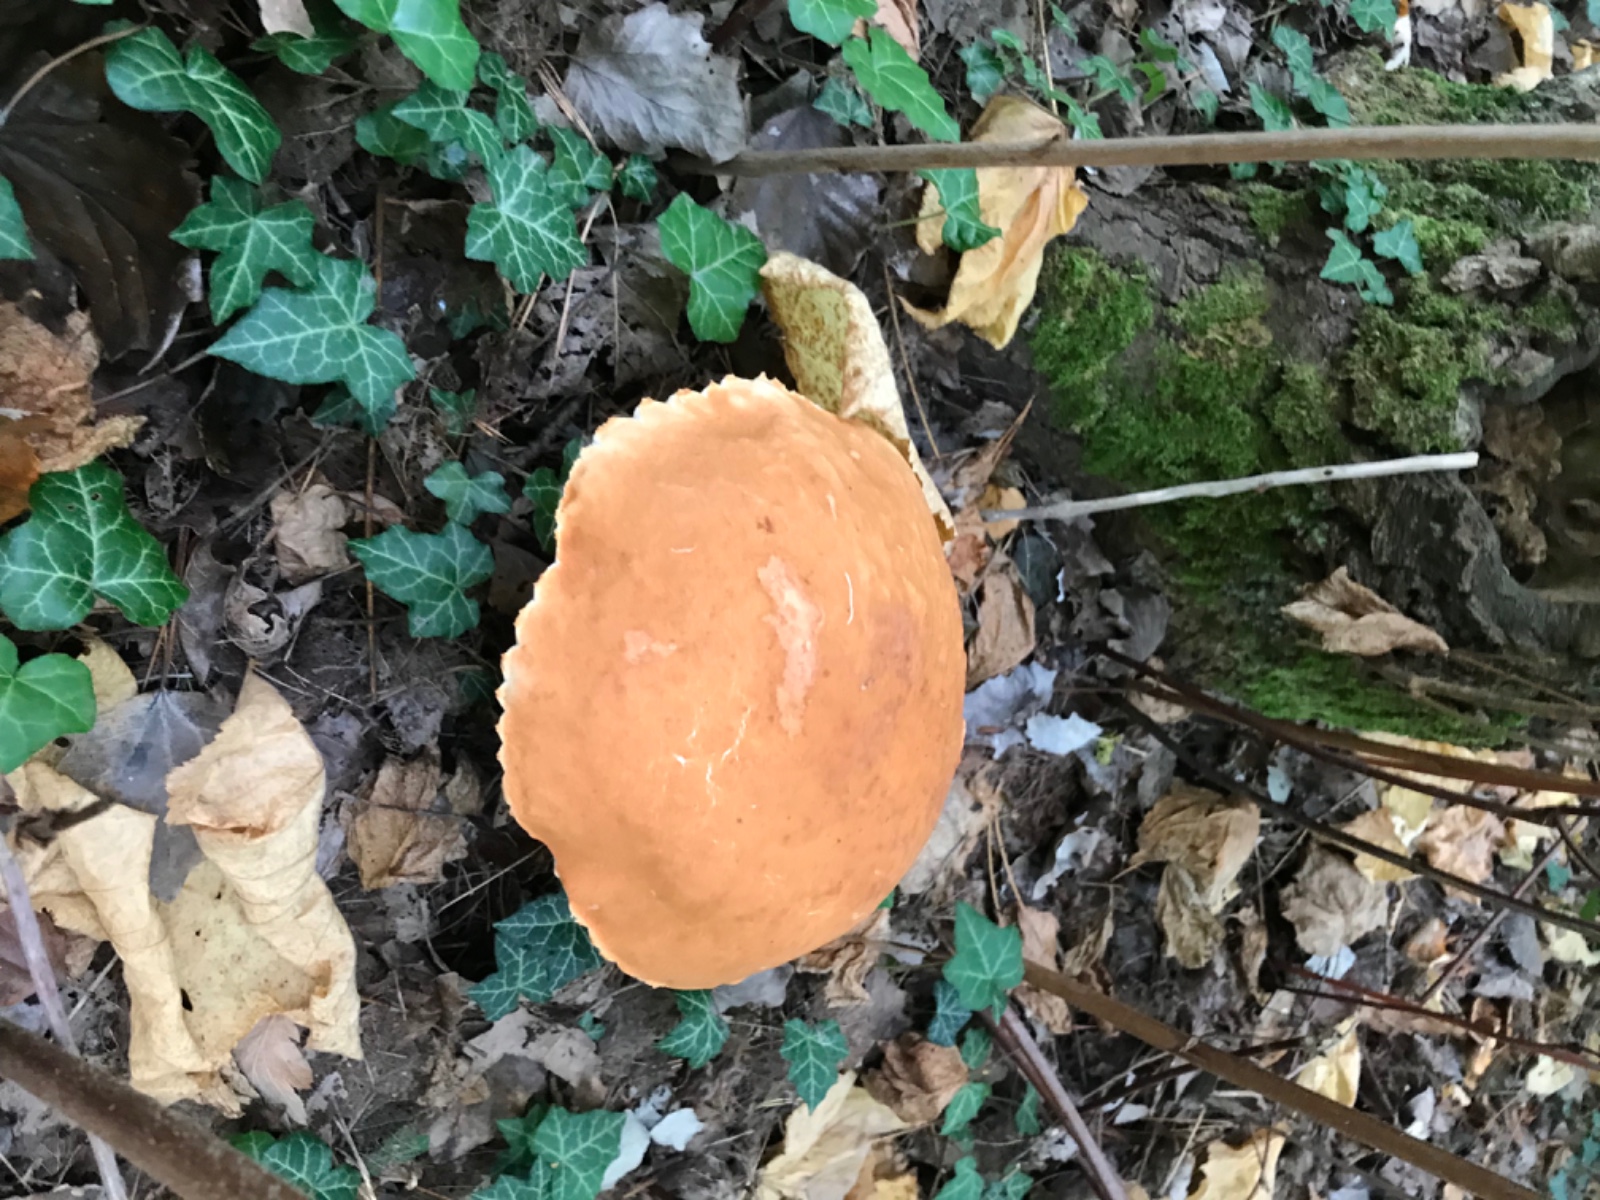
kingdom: Fungi
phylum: Basidiomycota
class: Agaricomycetes
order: Boletales
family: Boletaceae
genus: Leccinum
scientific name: Leccinum albostipitatum
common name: aspe-skælrørhat
